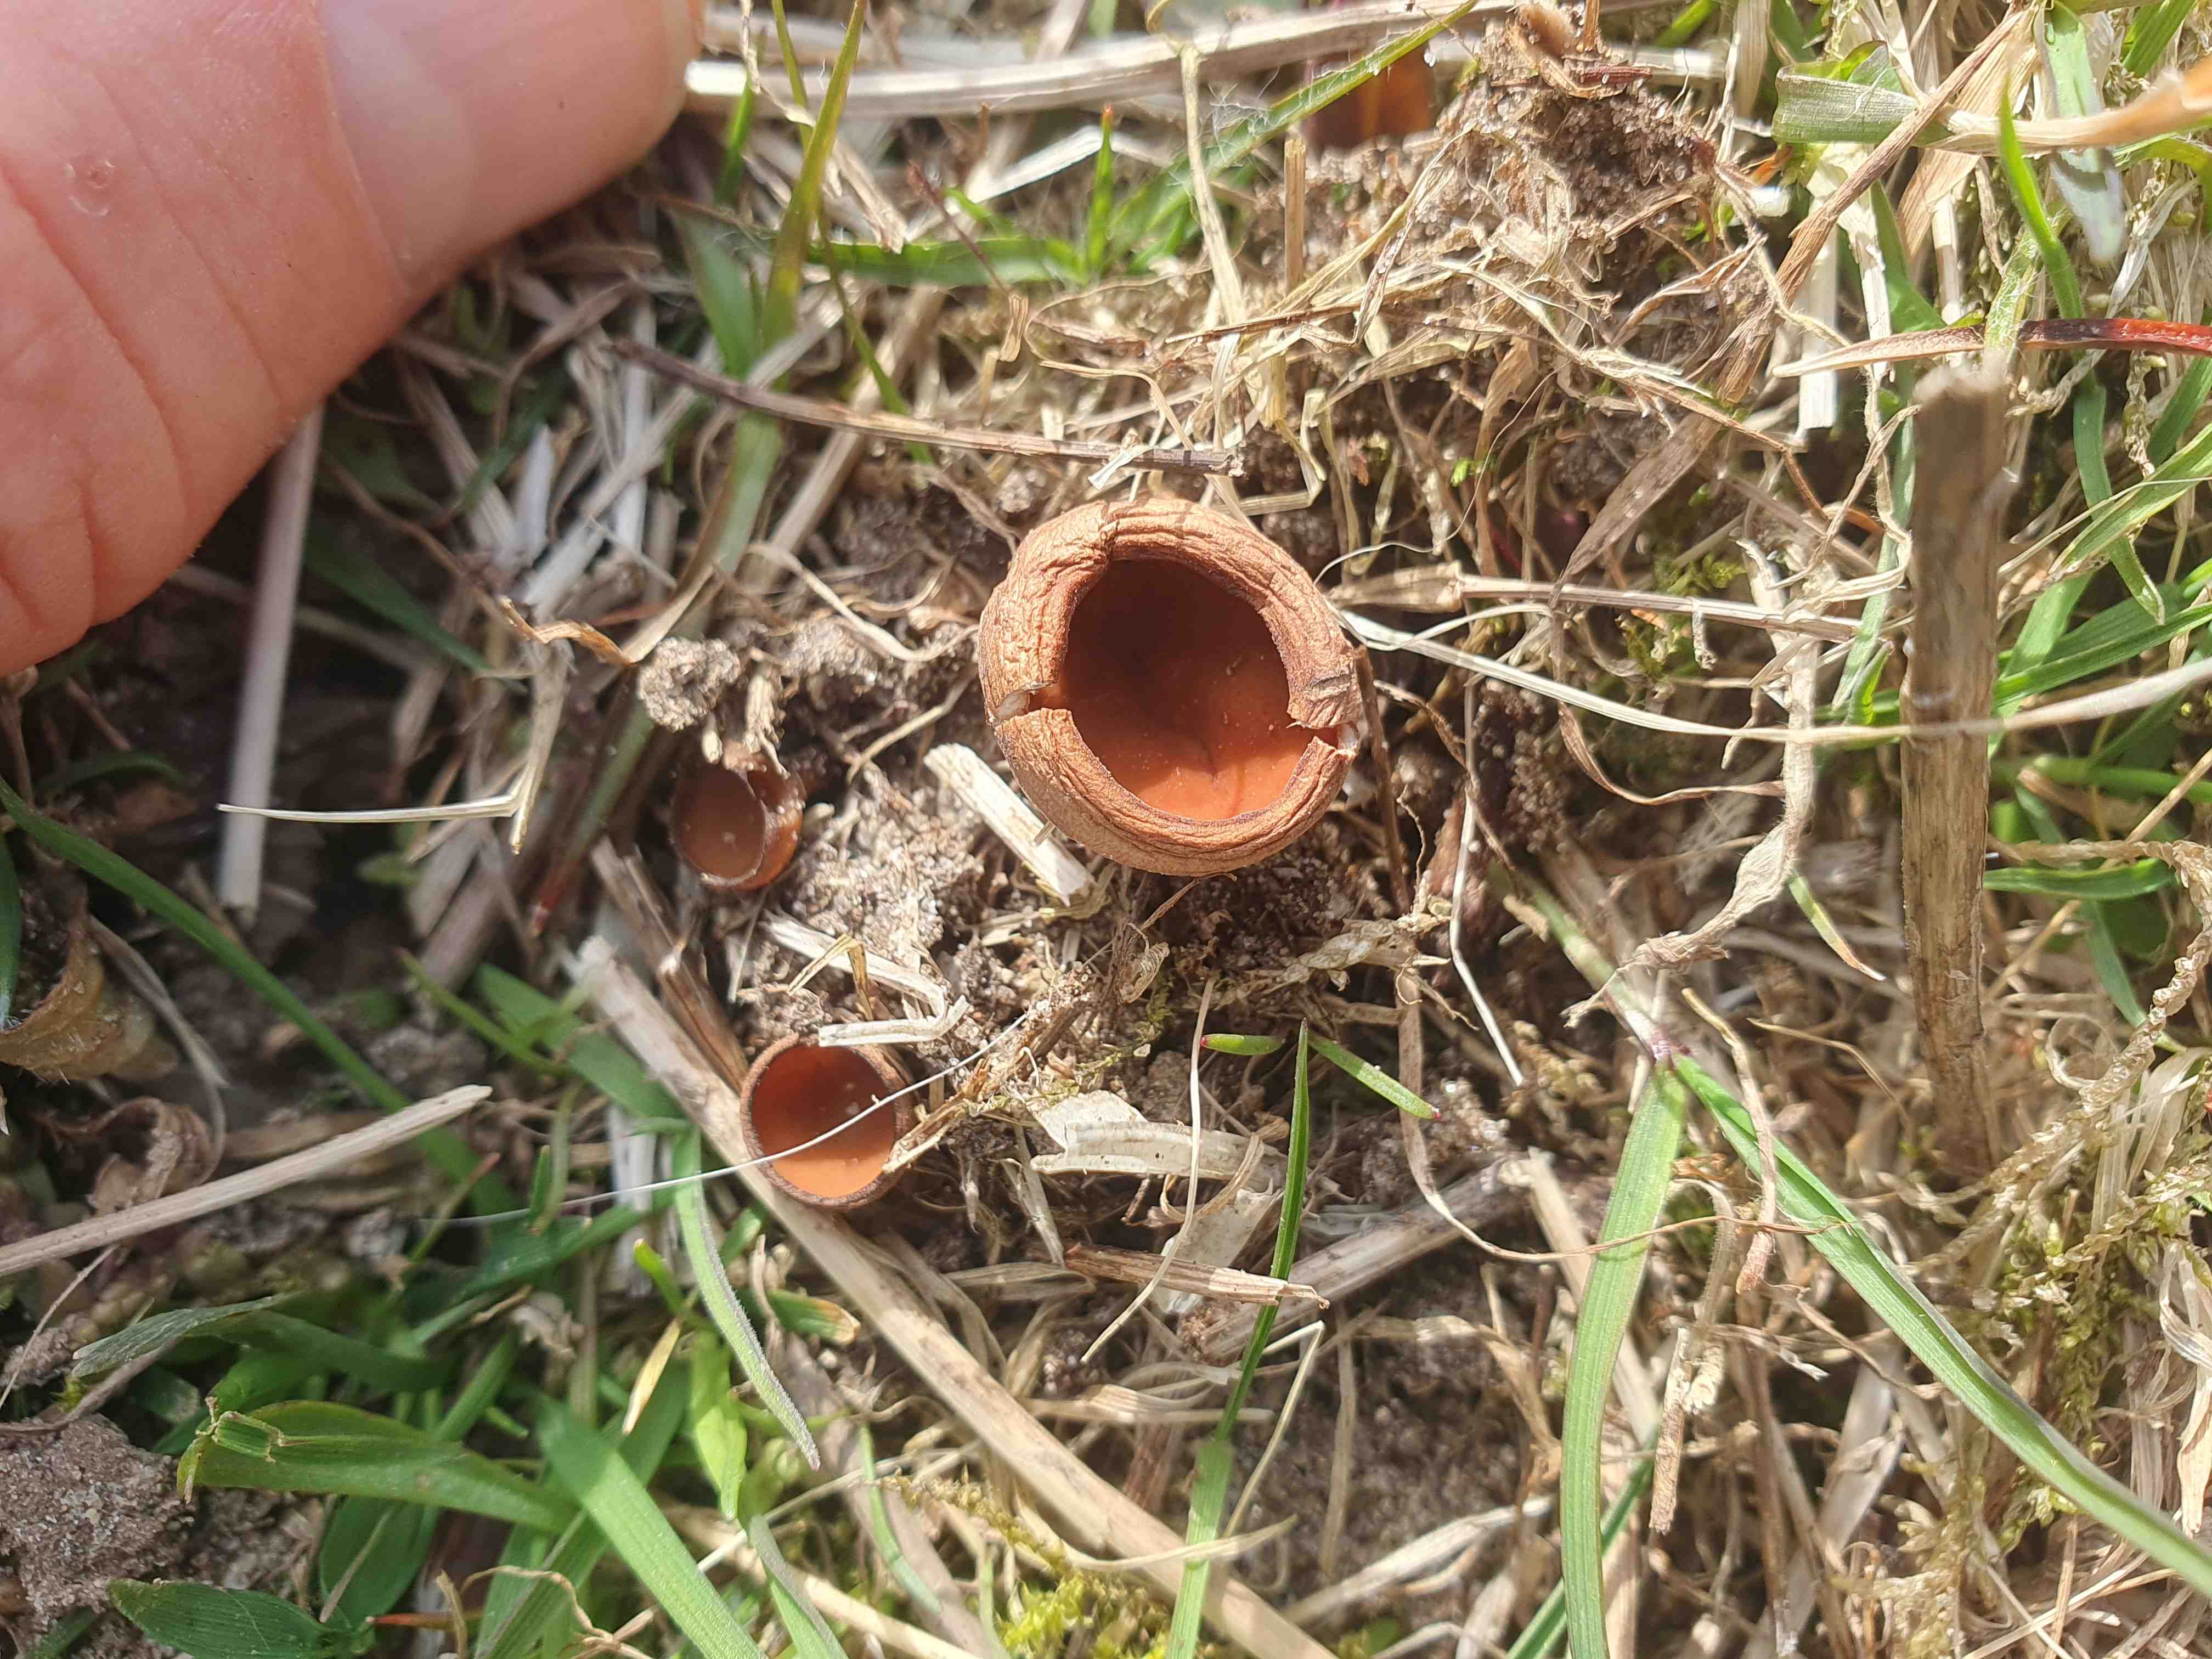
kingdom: Fungi
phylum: Ascomycota
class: Leotiomycetes
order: Helotiales
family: Sclerotiniaceae
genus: Dumontinia
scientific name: Dumontinia tuberosa
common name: anemone-knoldskive
